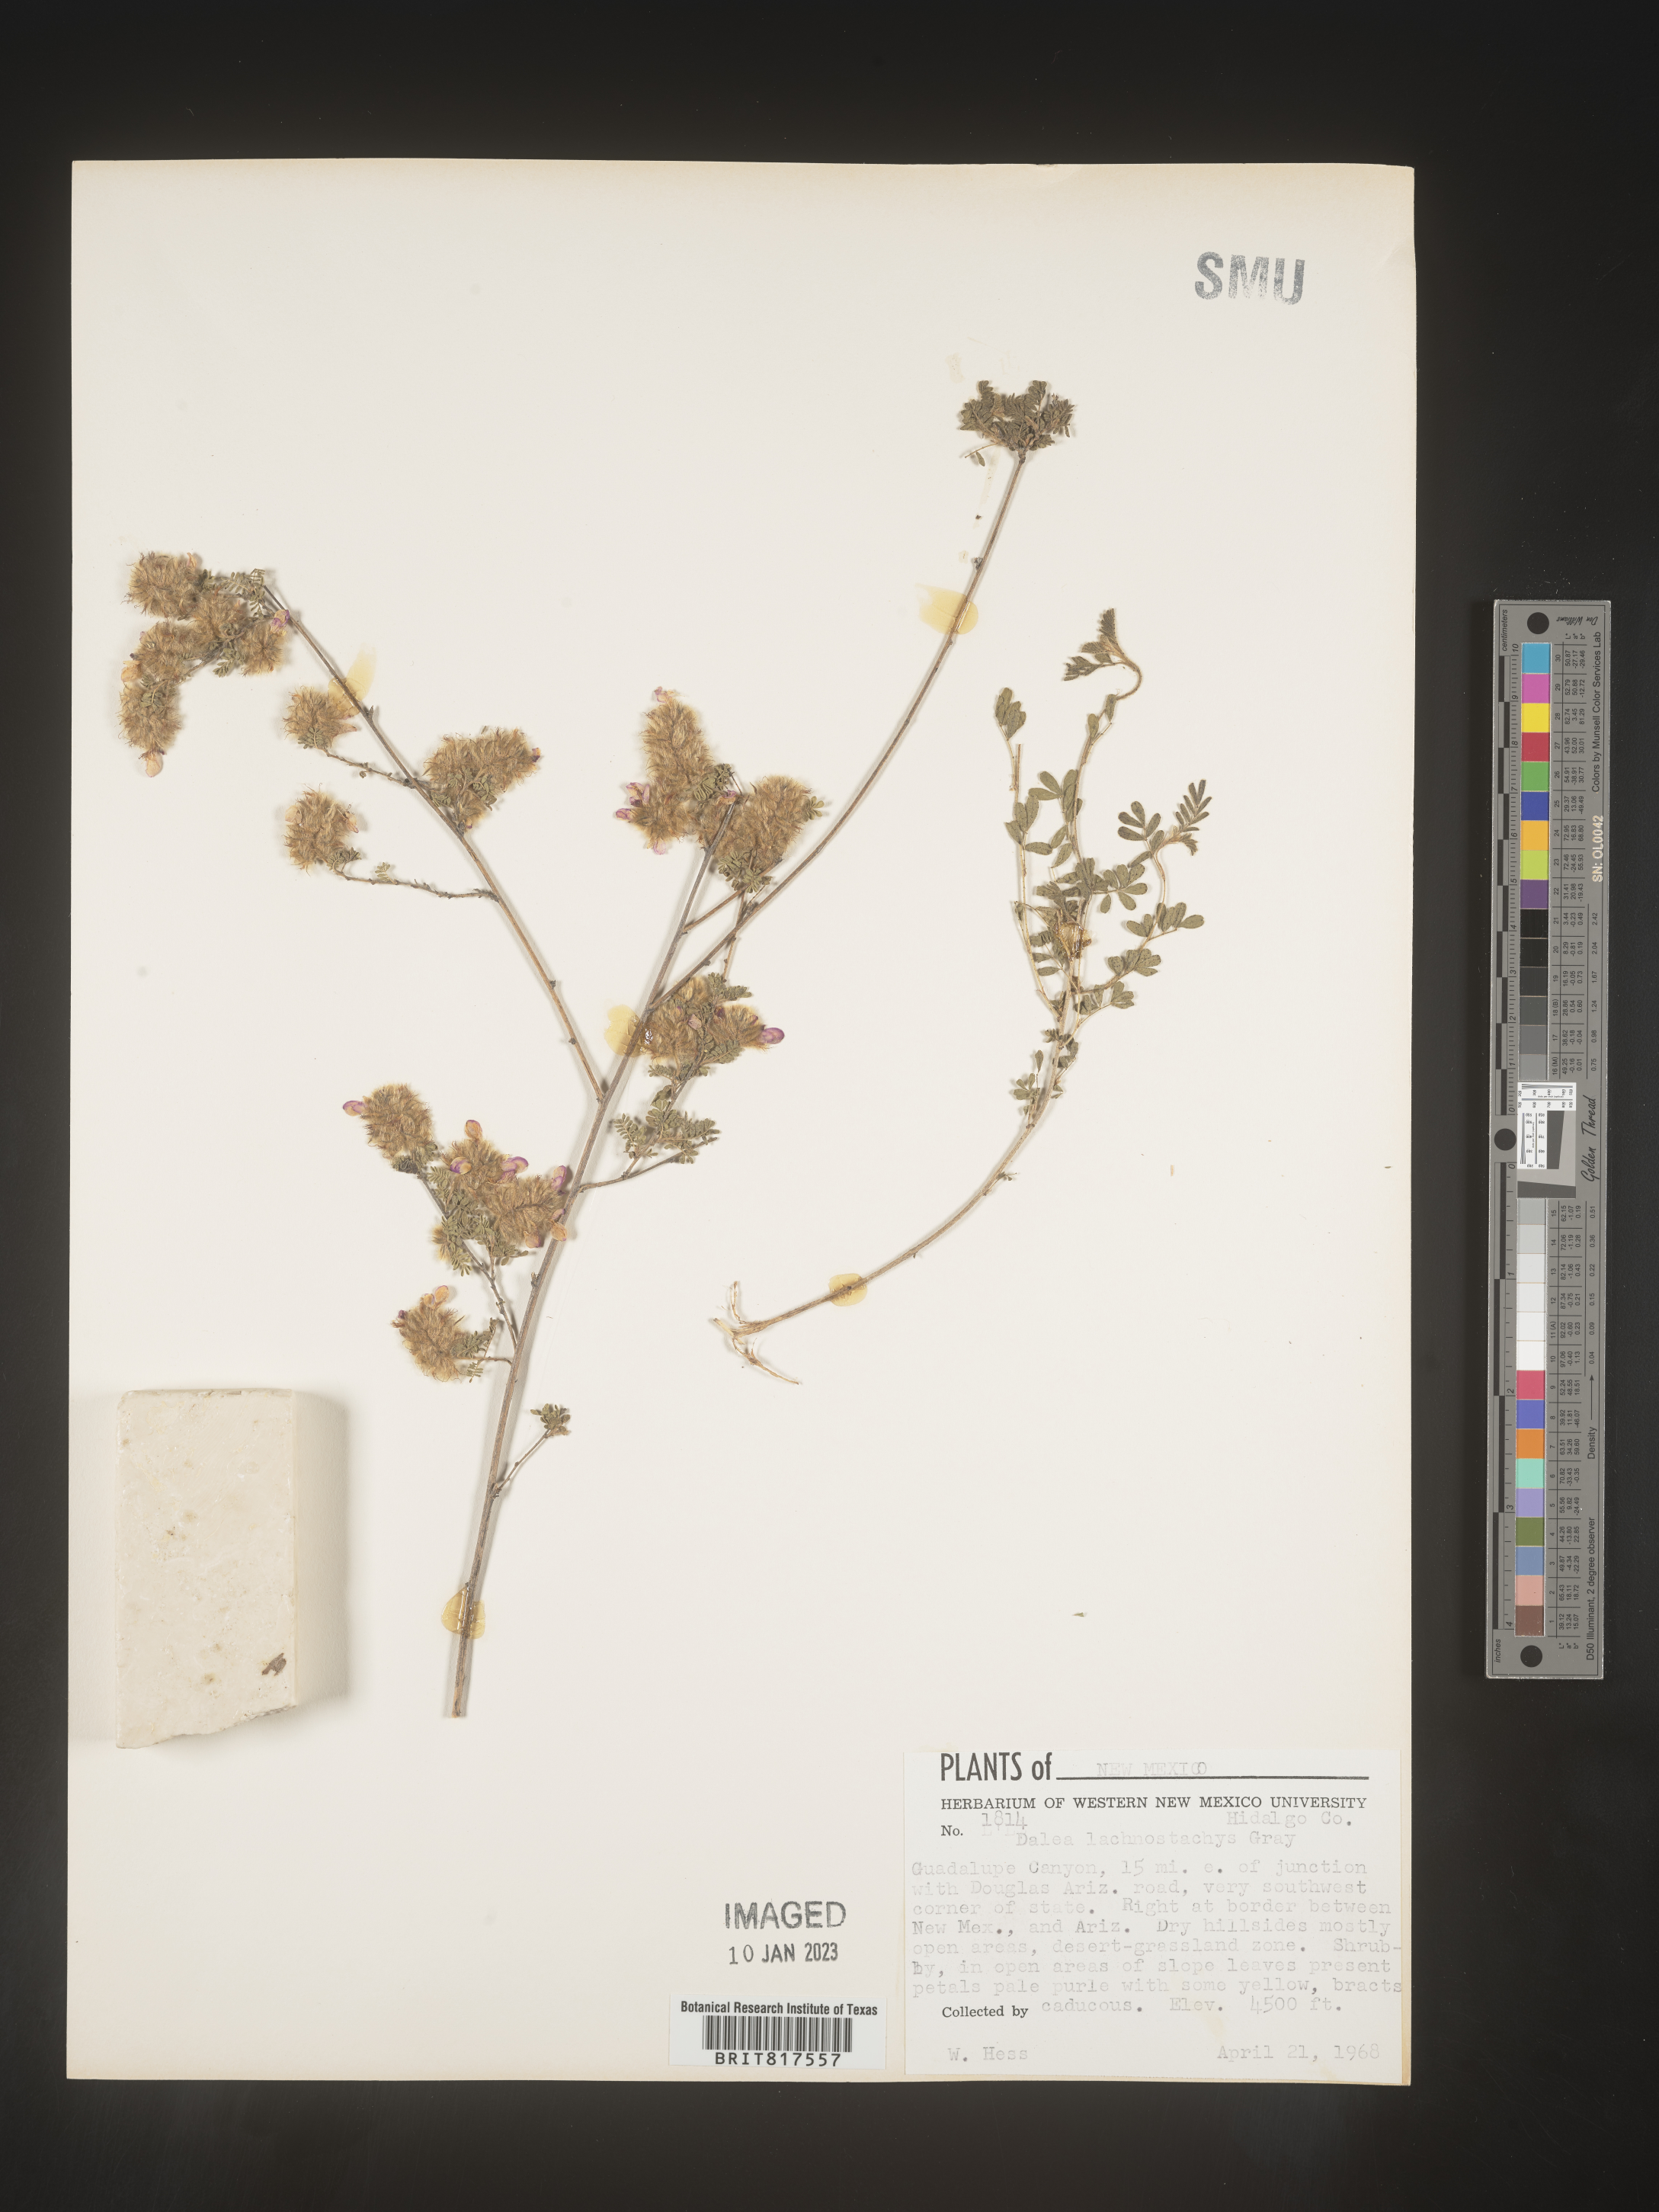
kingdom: Plantae
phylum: Tracheophyta
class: Magnoliopsida
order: Fabales
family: Fabaceae
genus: Dalea
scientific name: Dalea hegewischiana
